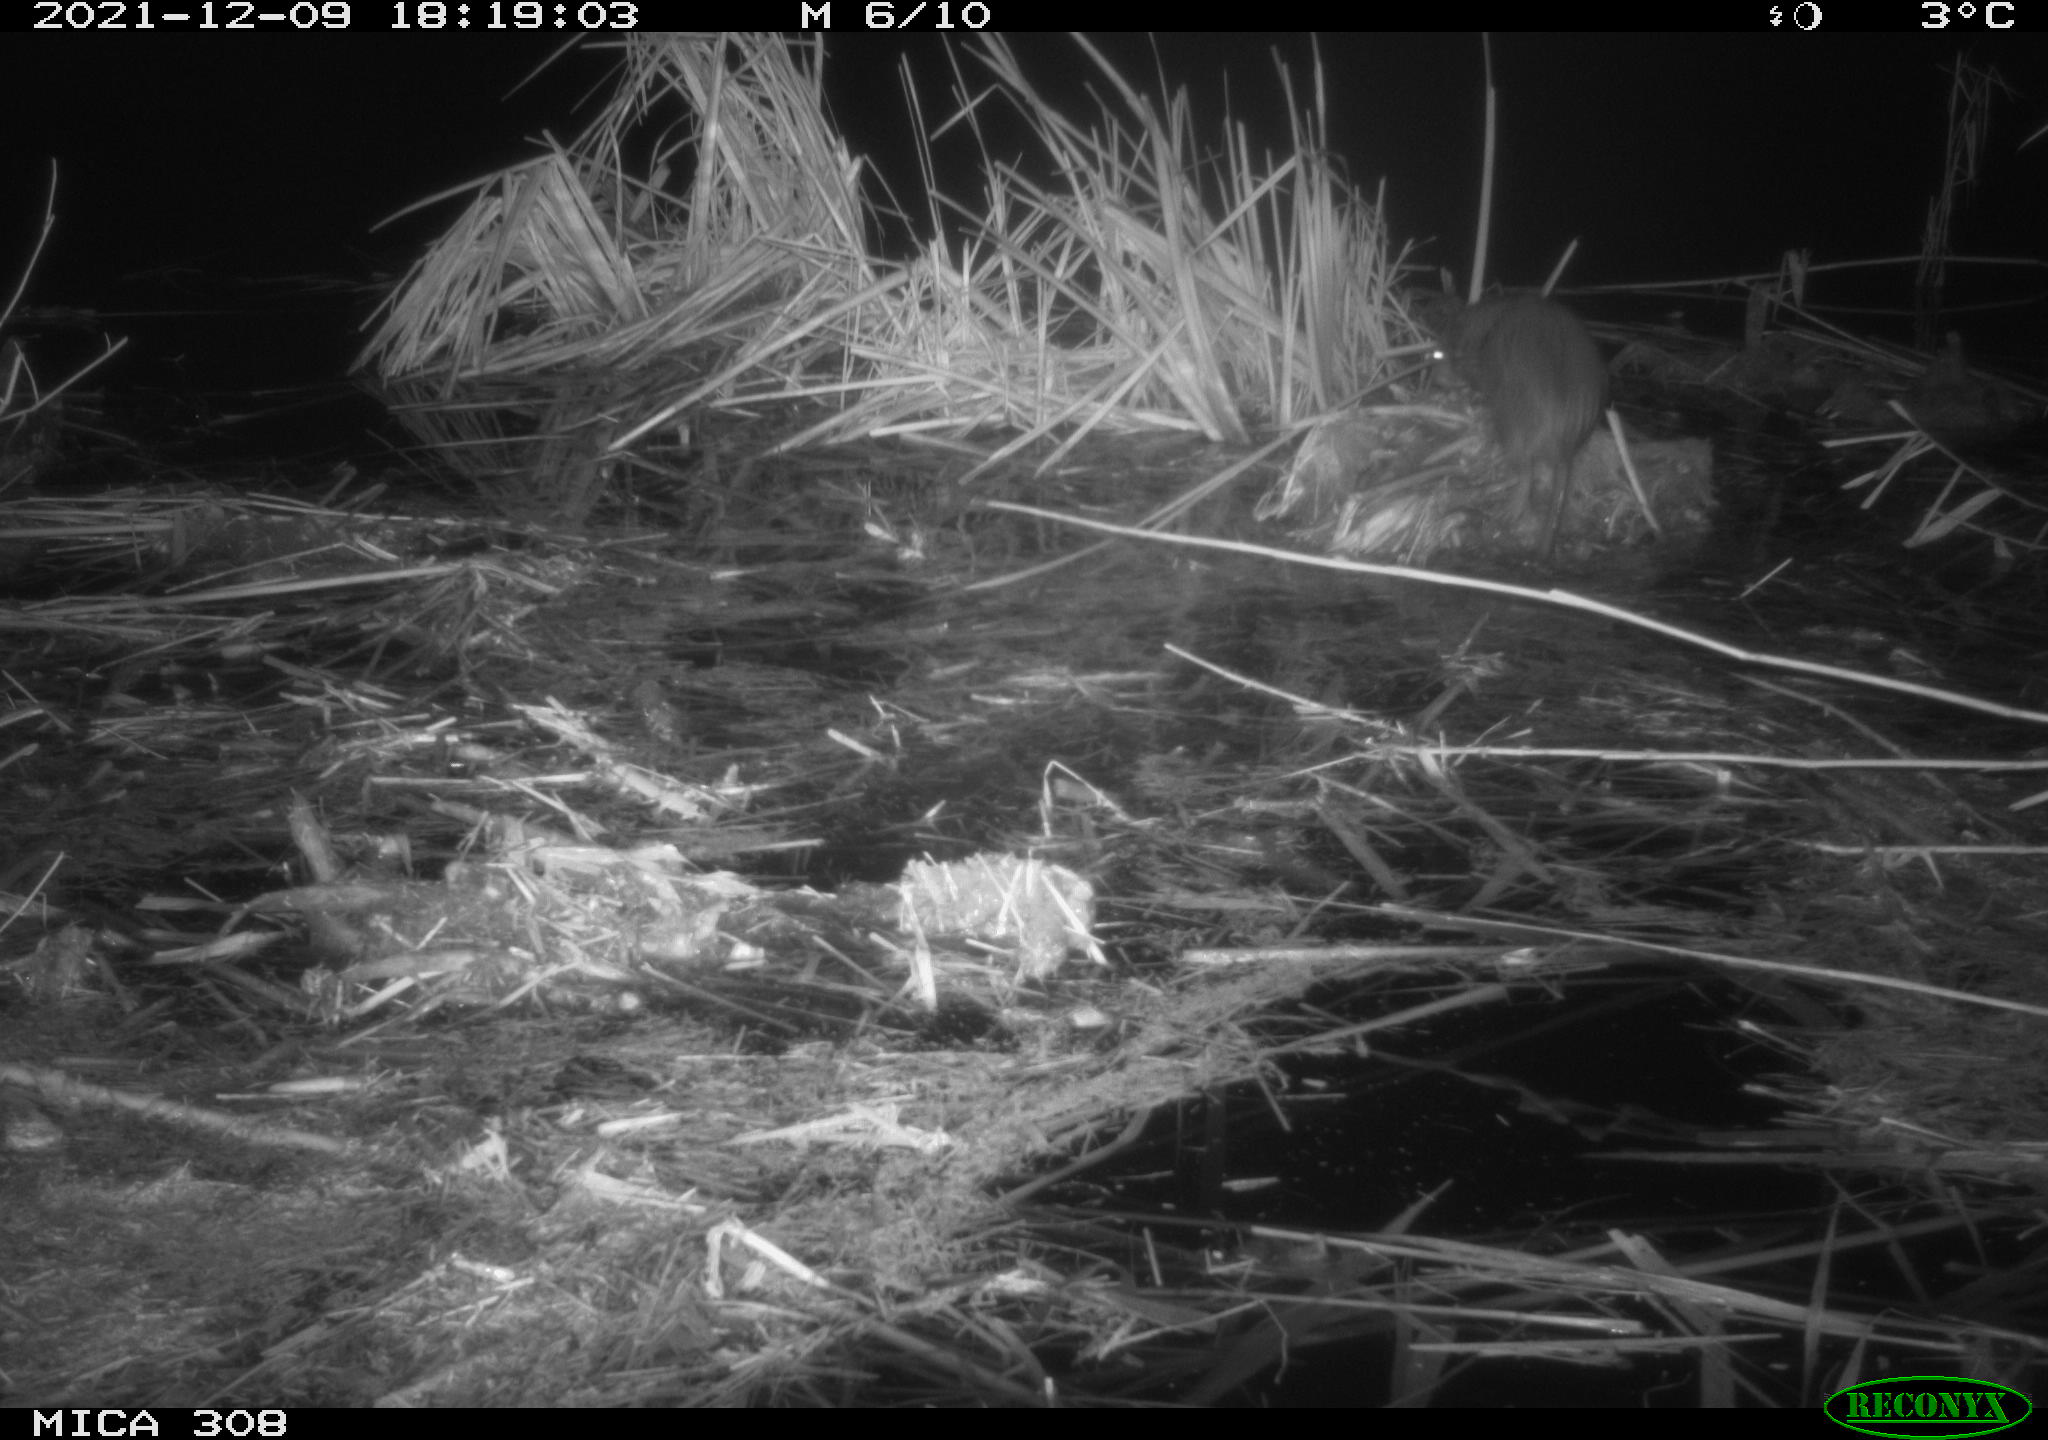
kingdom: Animalia
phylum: Chordata
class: Mammalia
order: Rodentia
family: Cricetidae
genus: Ondatra
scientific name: Ondatra zibethicus
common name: Muskrat
